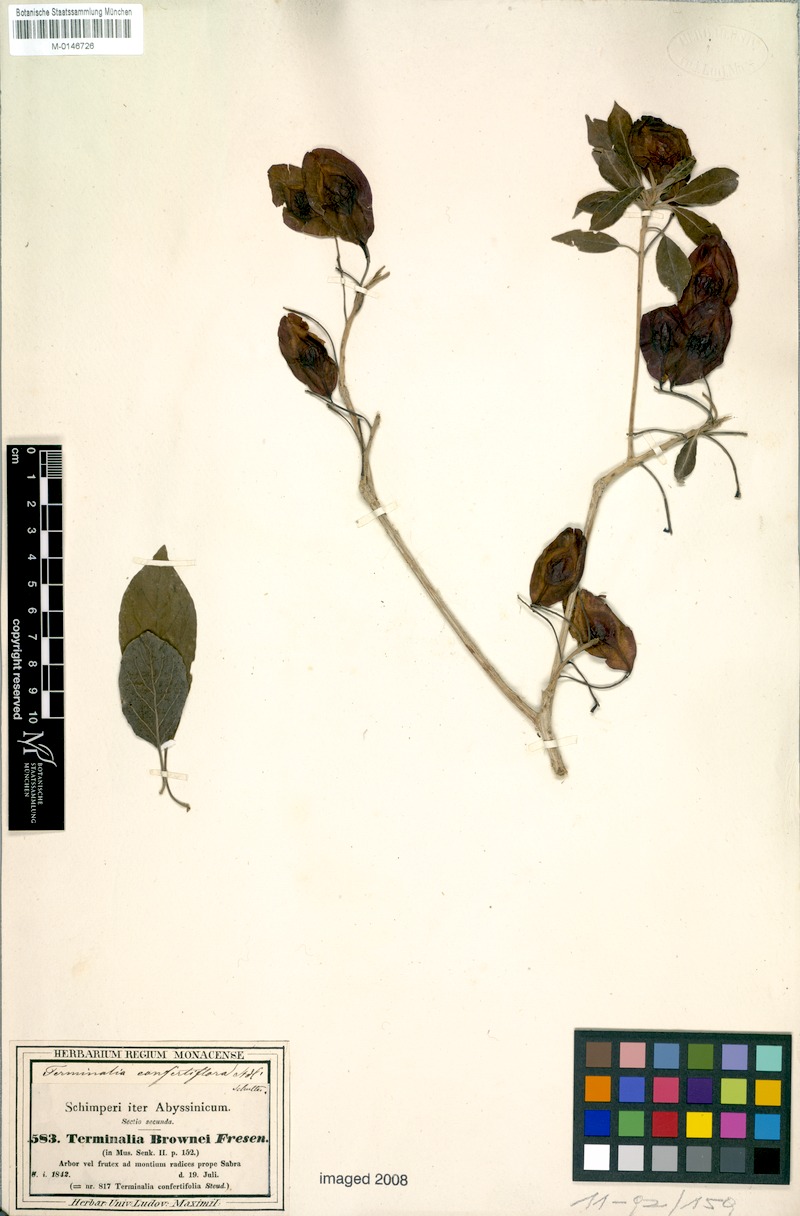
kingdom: Plantae
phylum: Tracheophyta
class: Magnoliopsida
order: Myrtales
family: Combretaceae
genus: Terminalia
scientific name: Terminalia brownii
